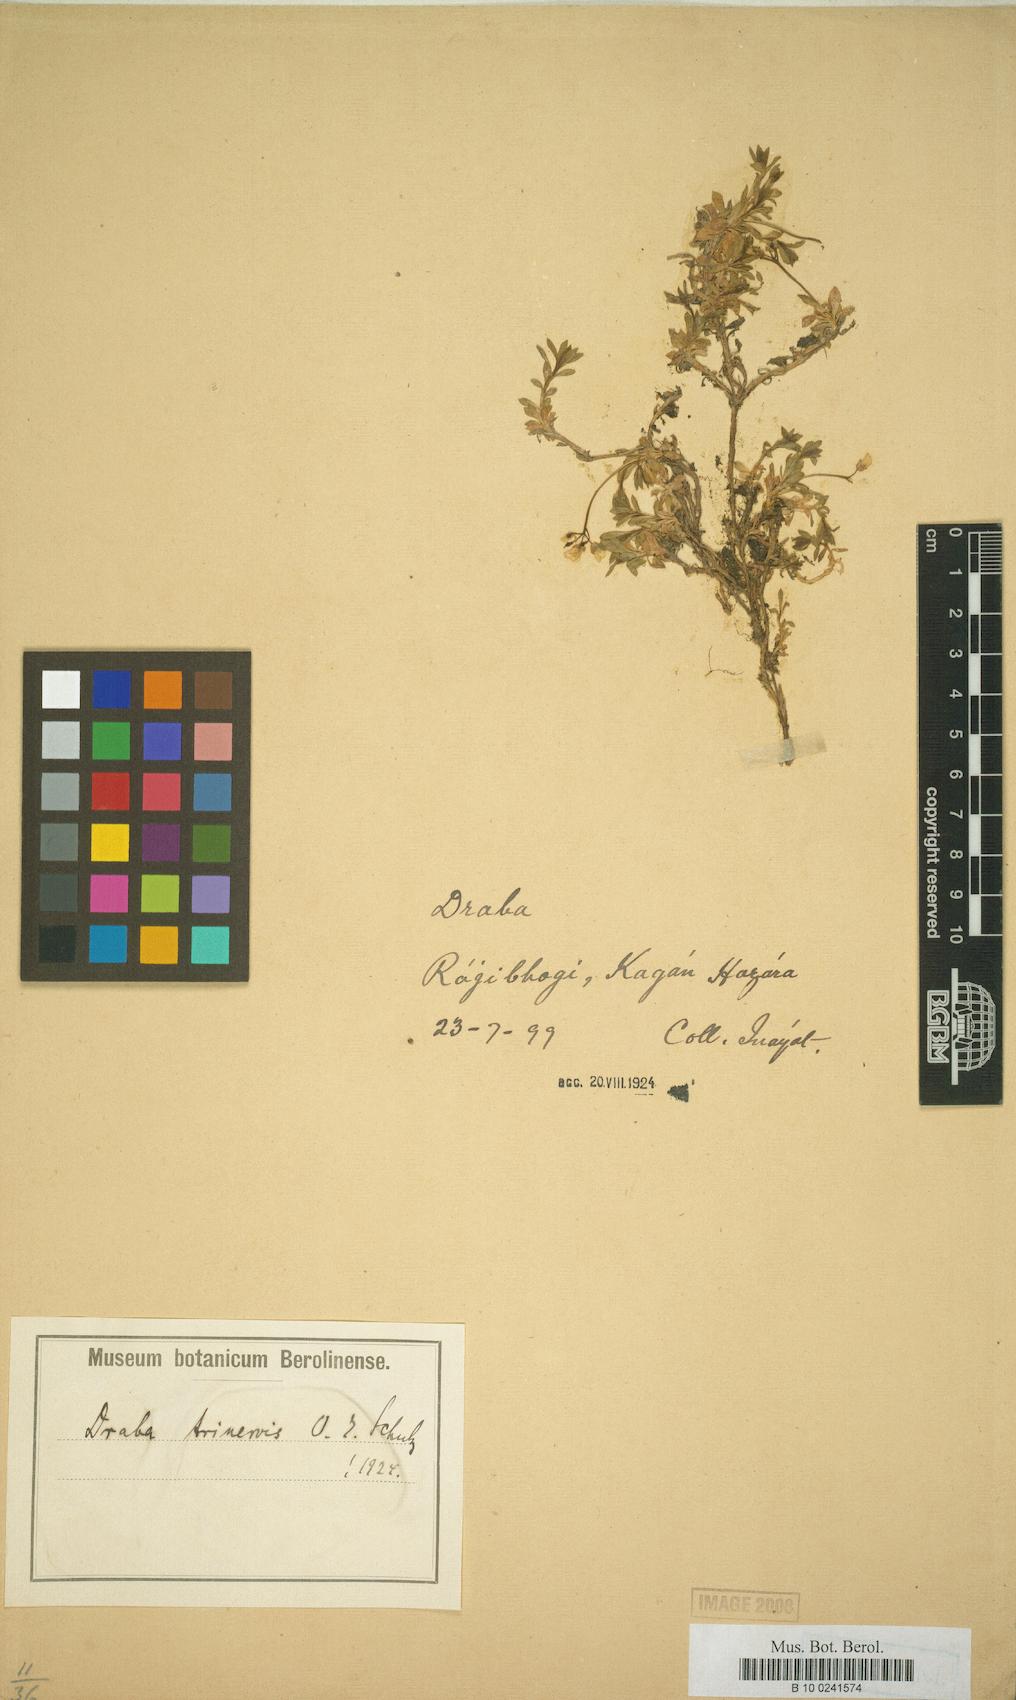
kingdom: Plantae
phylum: Tracheophyta
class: Magnoliopsida
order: Brassicales
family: Brassicaceae
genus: Draba
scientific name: Draba trinervis
